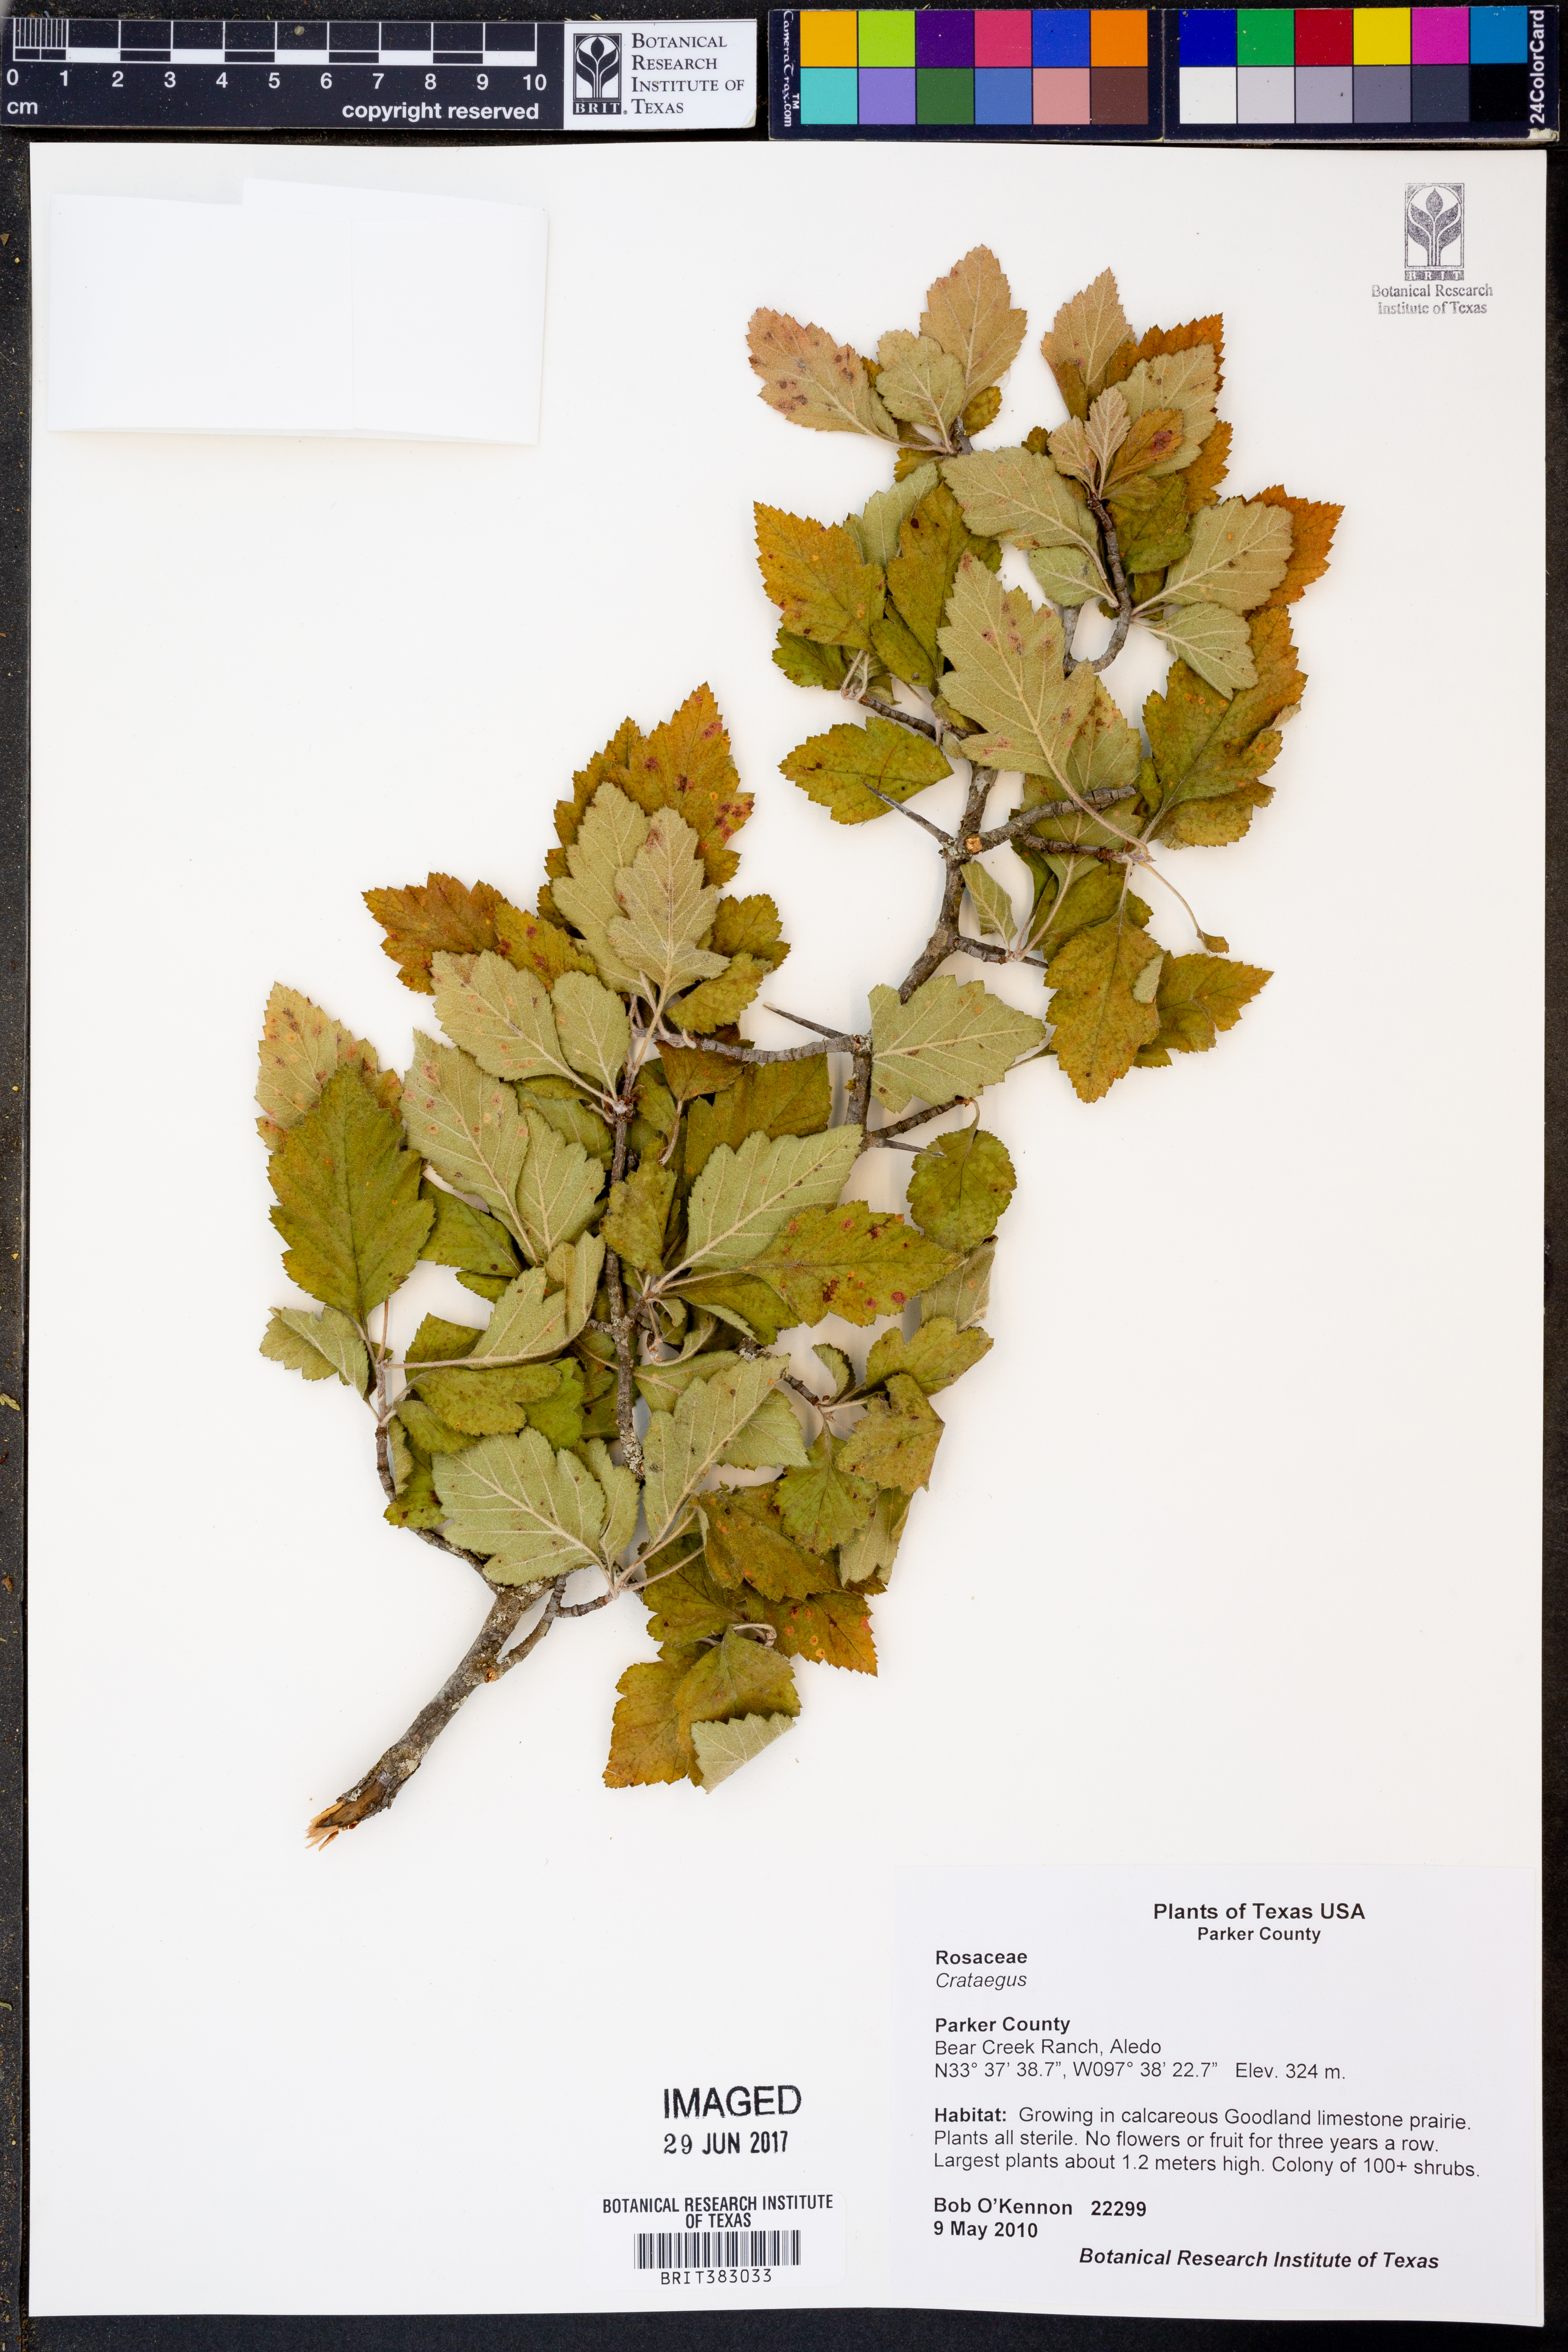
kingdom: Plantae
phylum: Tracheophyta
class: Magnoliopsida
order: Rosales
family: Rosaceae
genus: Crataegus
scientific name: Crataegus
